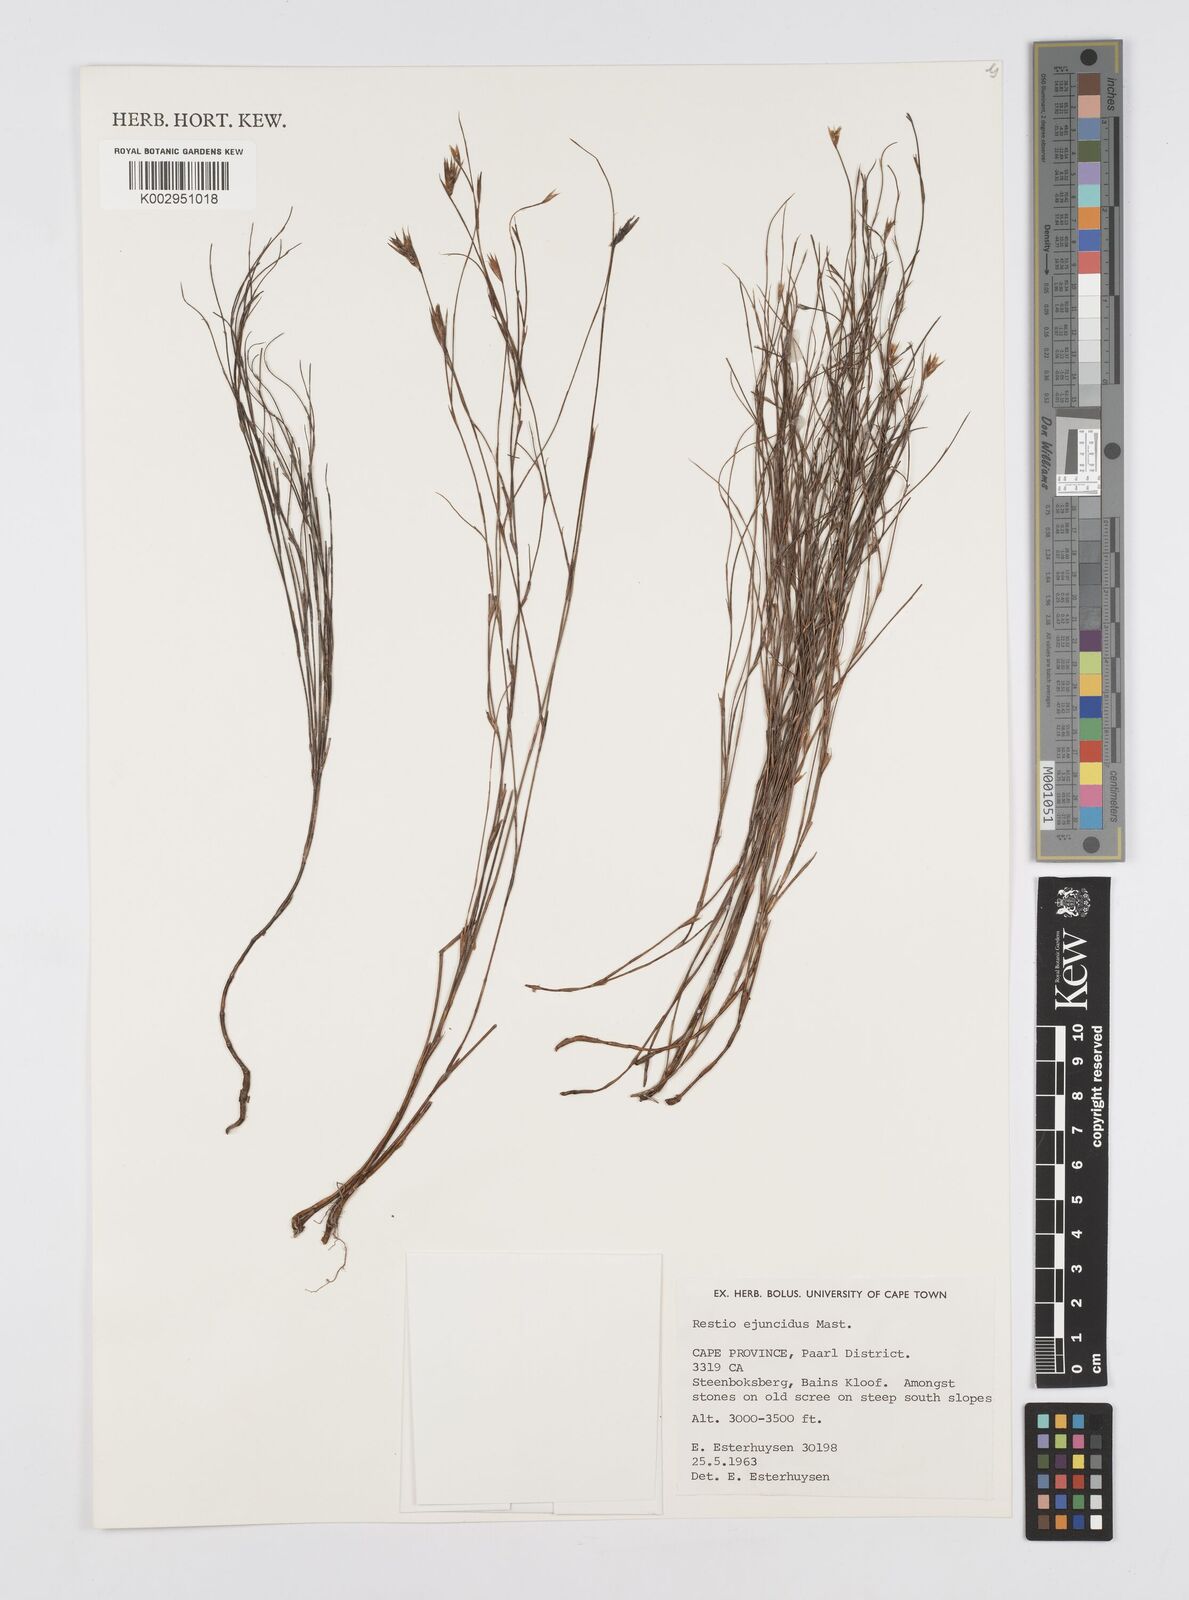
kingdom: Plantae
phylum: Tracheophyta
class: Liliopsida
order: Poales
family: Restionaceae
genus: Restio
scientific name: Restio ejuncidus
